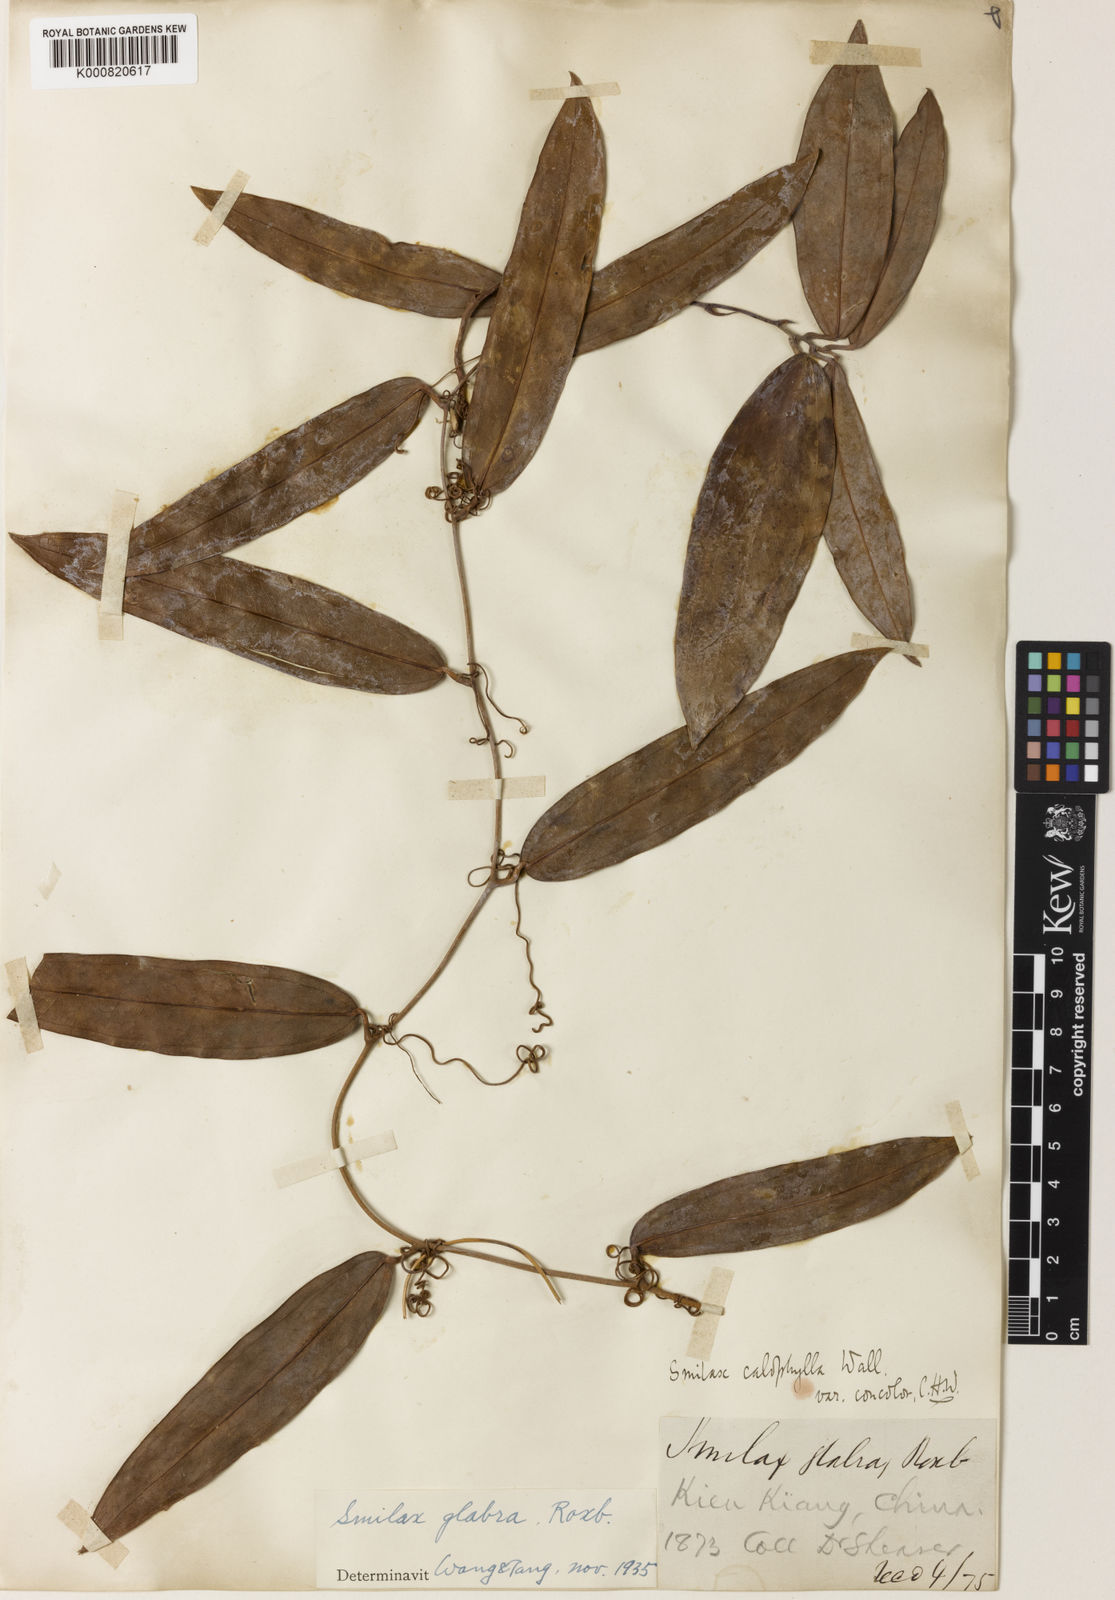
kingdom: Plantae
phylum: Tracheophyta
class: Liliopsida
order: Liliales
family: Smilacaceae
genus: Smilax
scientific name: Smilax glabra
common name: Chinese smilax
